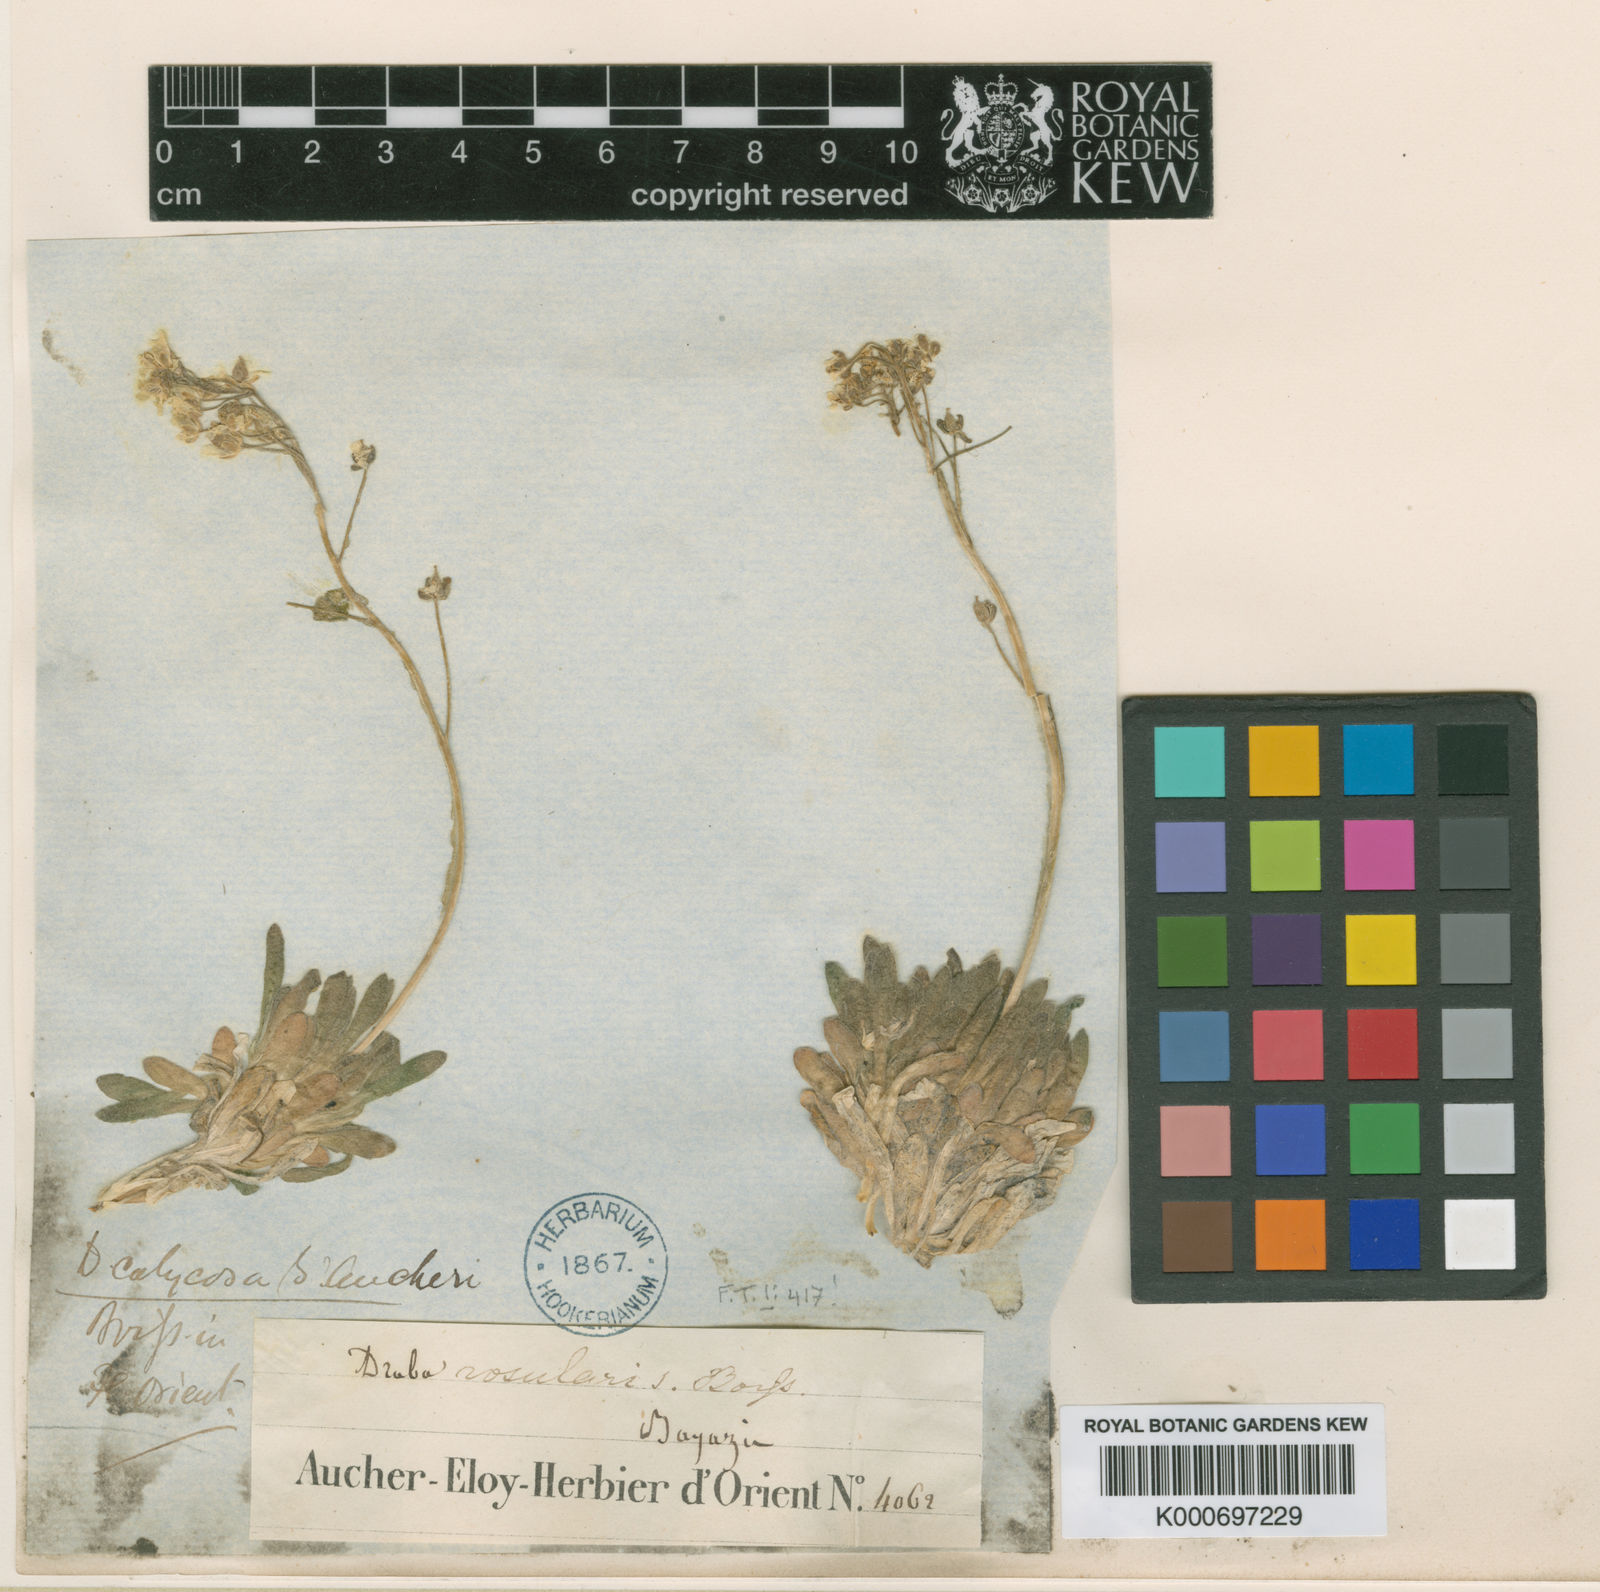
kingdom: Plantae
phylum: Tracheophyta
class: Magnoliopsida
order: Brassicales
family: Brassicaceae
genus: Draba
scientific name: Draba rosularis
